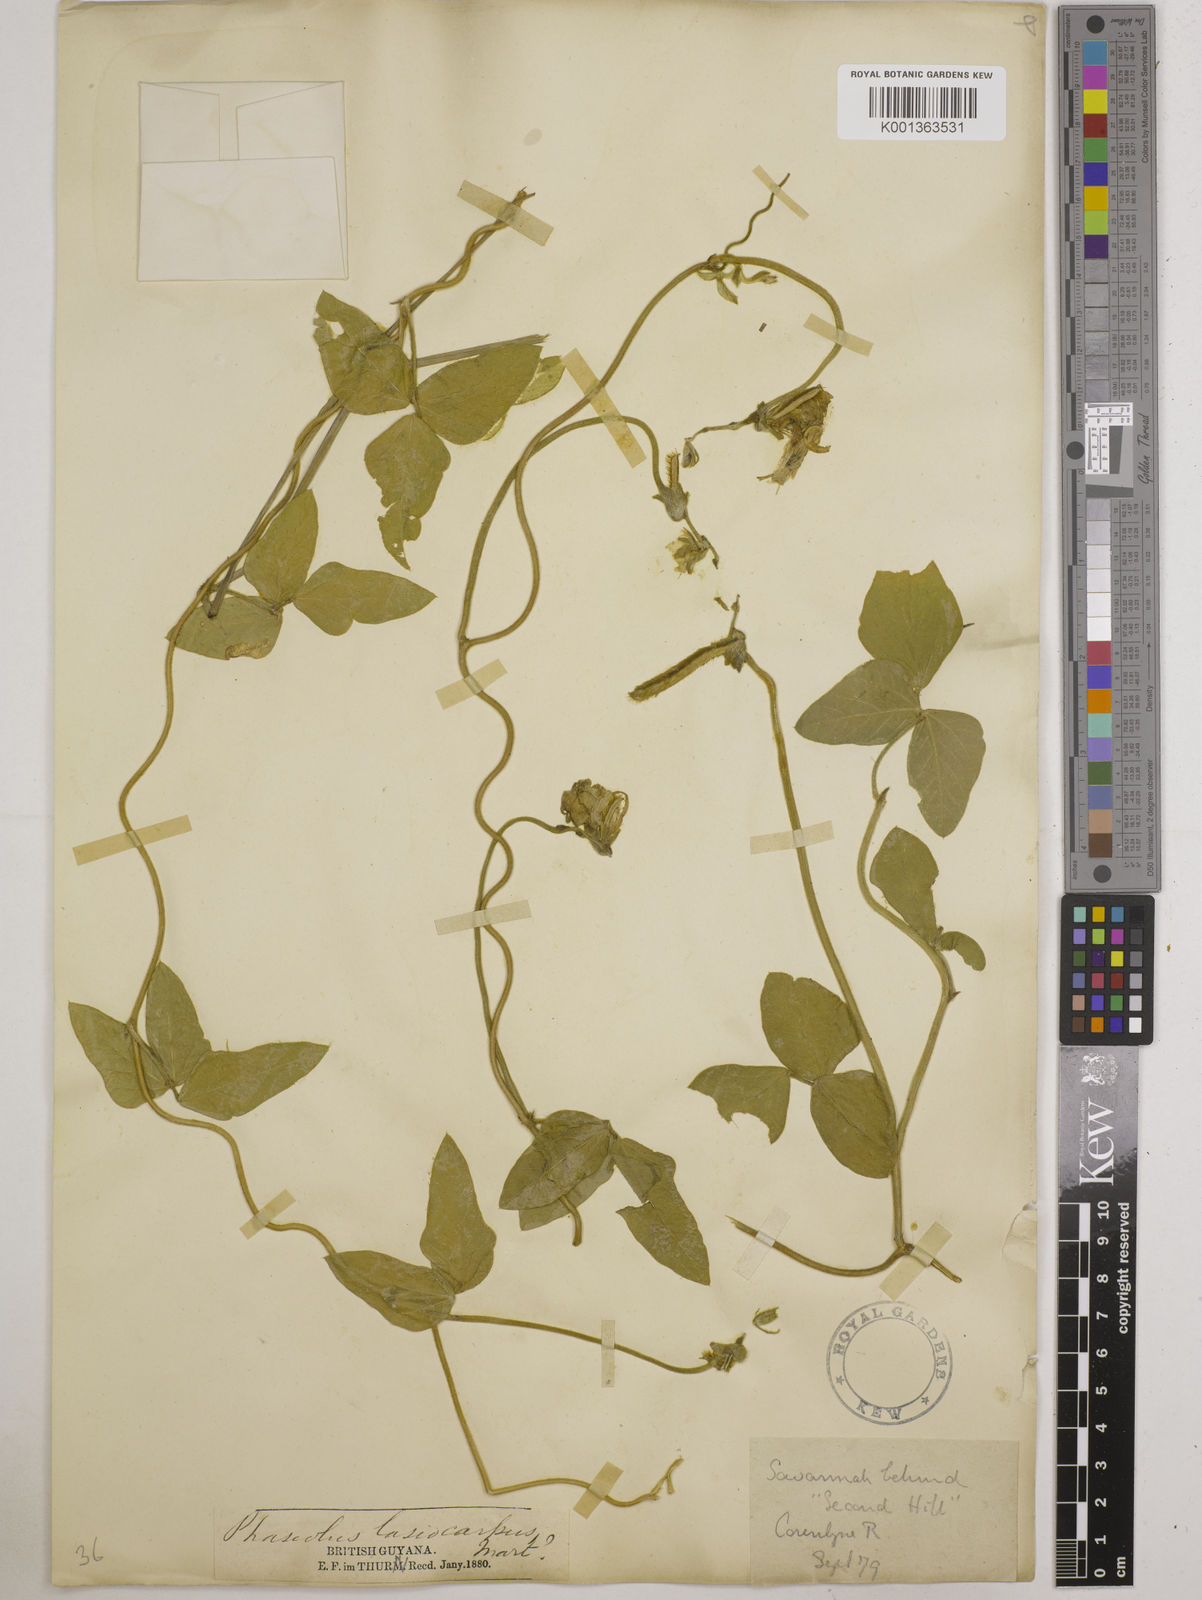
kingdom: Plantae
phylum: Tracheophyta
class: Magnoliopsida
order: Fabales
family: Fabaceae
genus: Vigna
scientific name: Vigna lasiocarpa
